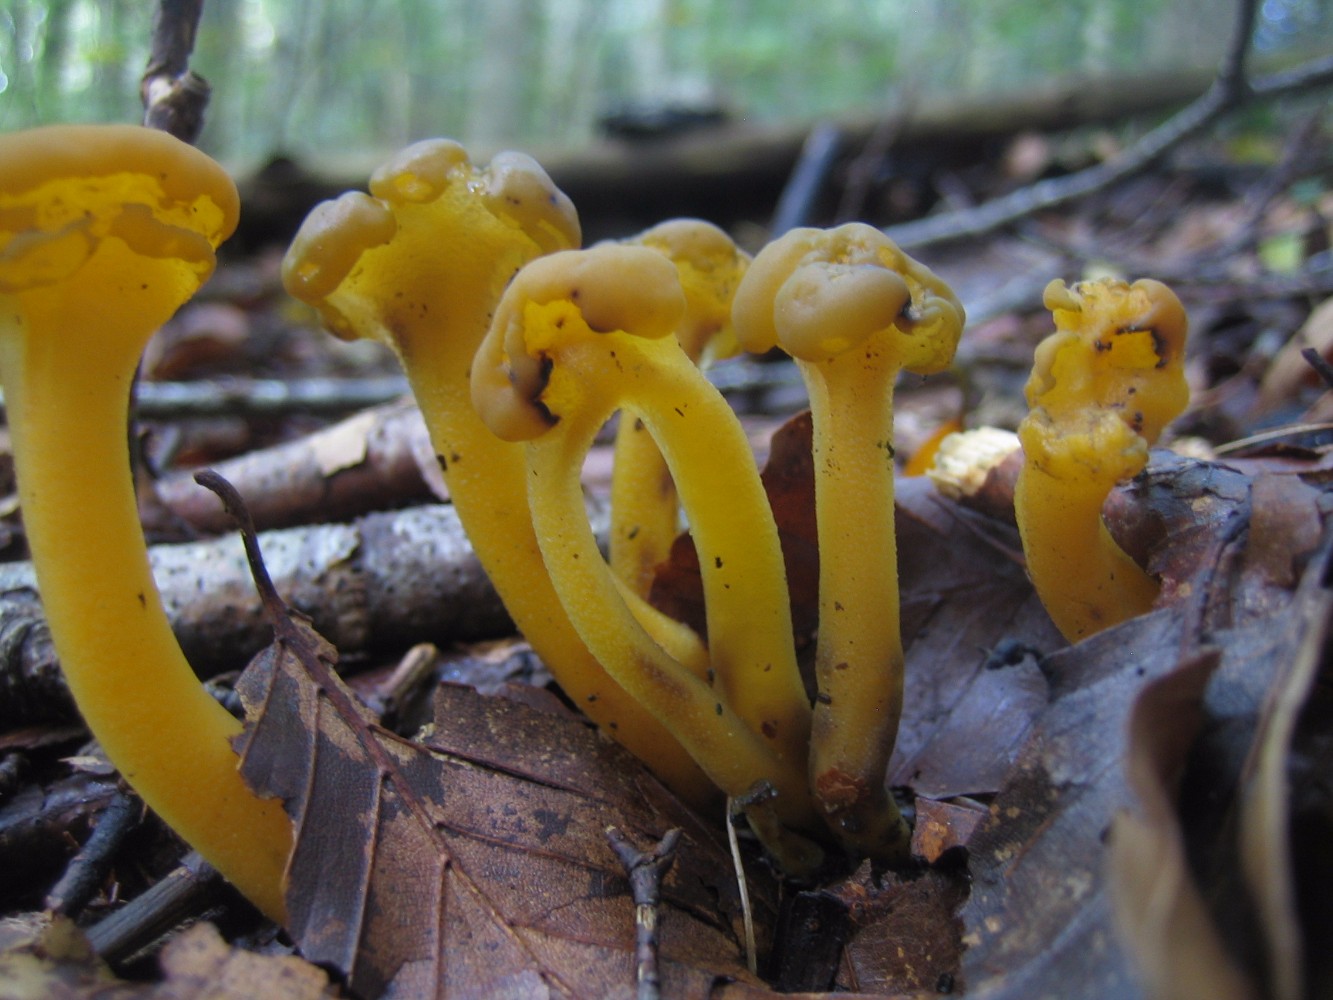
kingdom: Fungi
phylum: Ascomycota
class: Leotiomycetes
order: Leotiales
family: Leotiaceae
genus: Leotia
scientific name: Leotia
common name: ravsvamp
